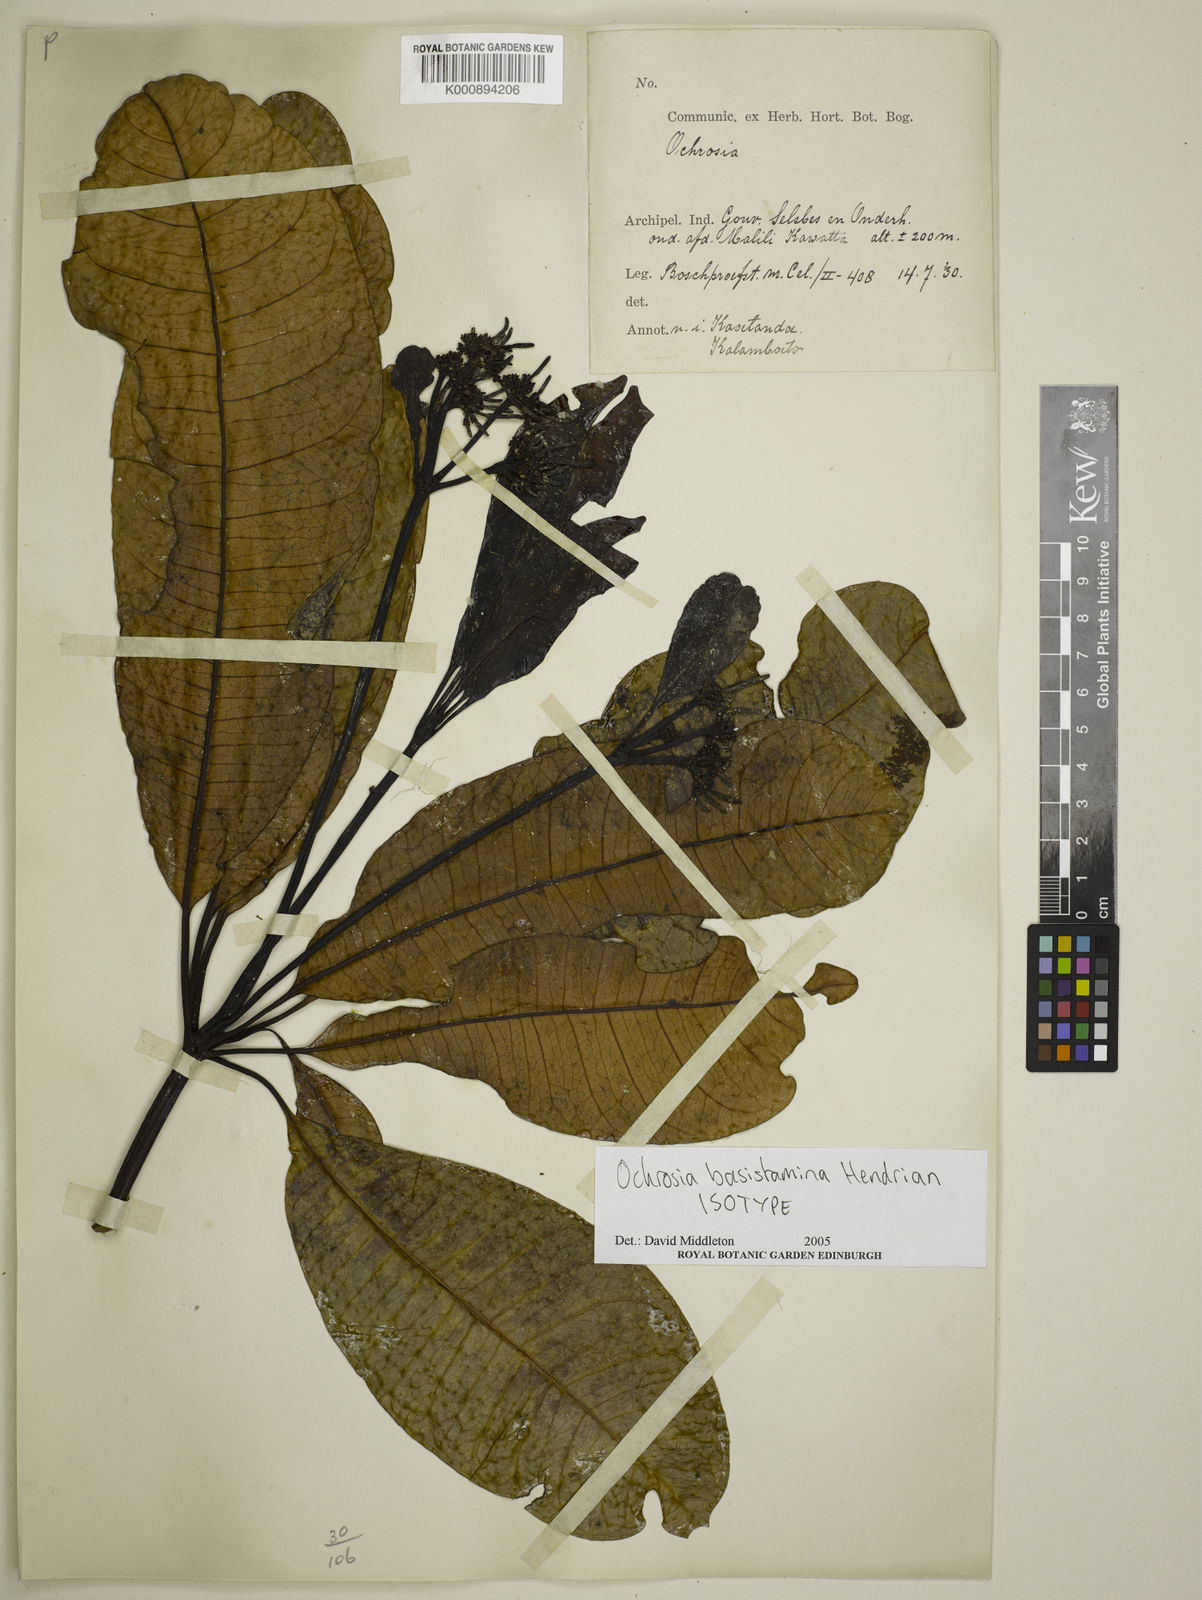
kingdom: Plantae
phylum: Tracheophyta
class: Magnoliopsida
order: Gentianales
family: Apocynaceae
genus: Ochrosia
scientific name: Ochrosia basistamina
